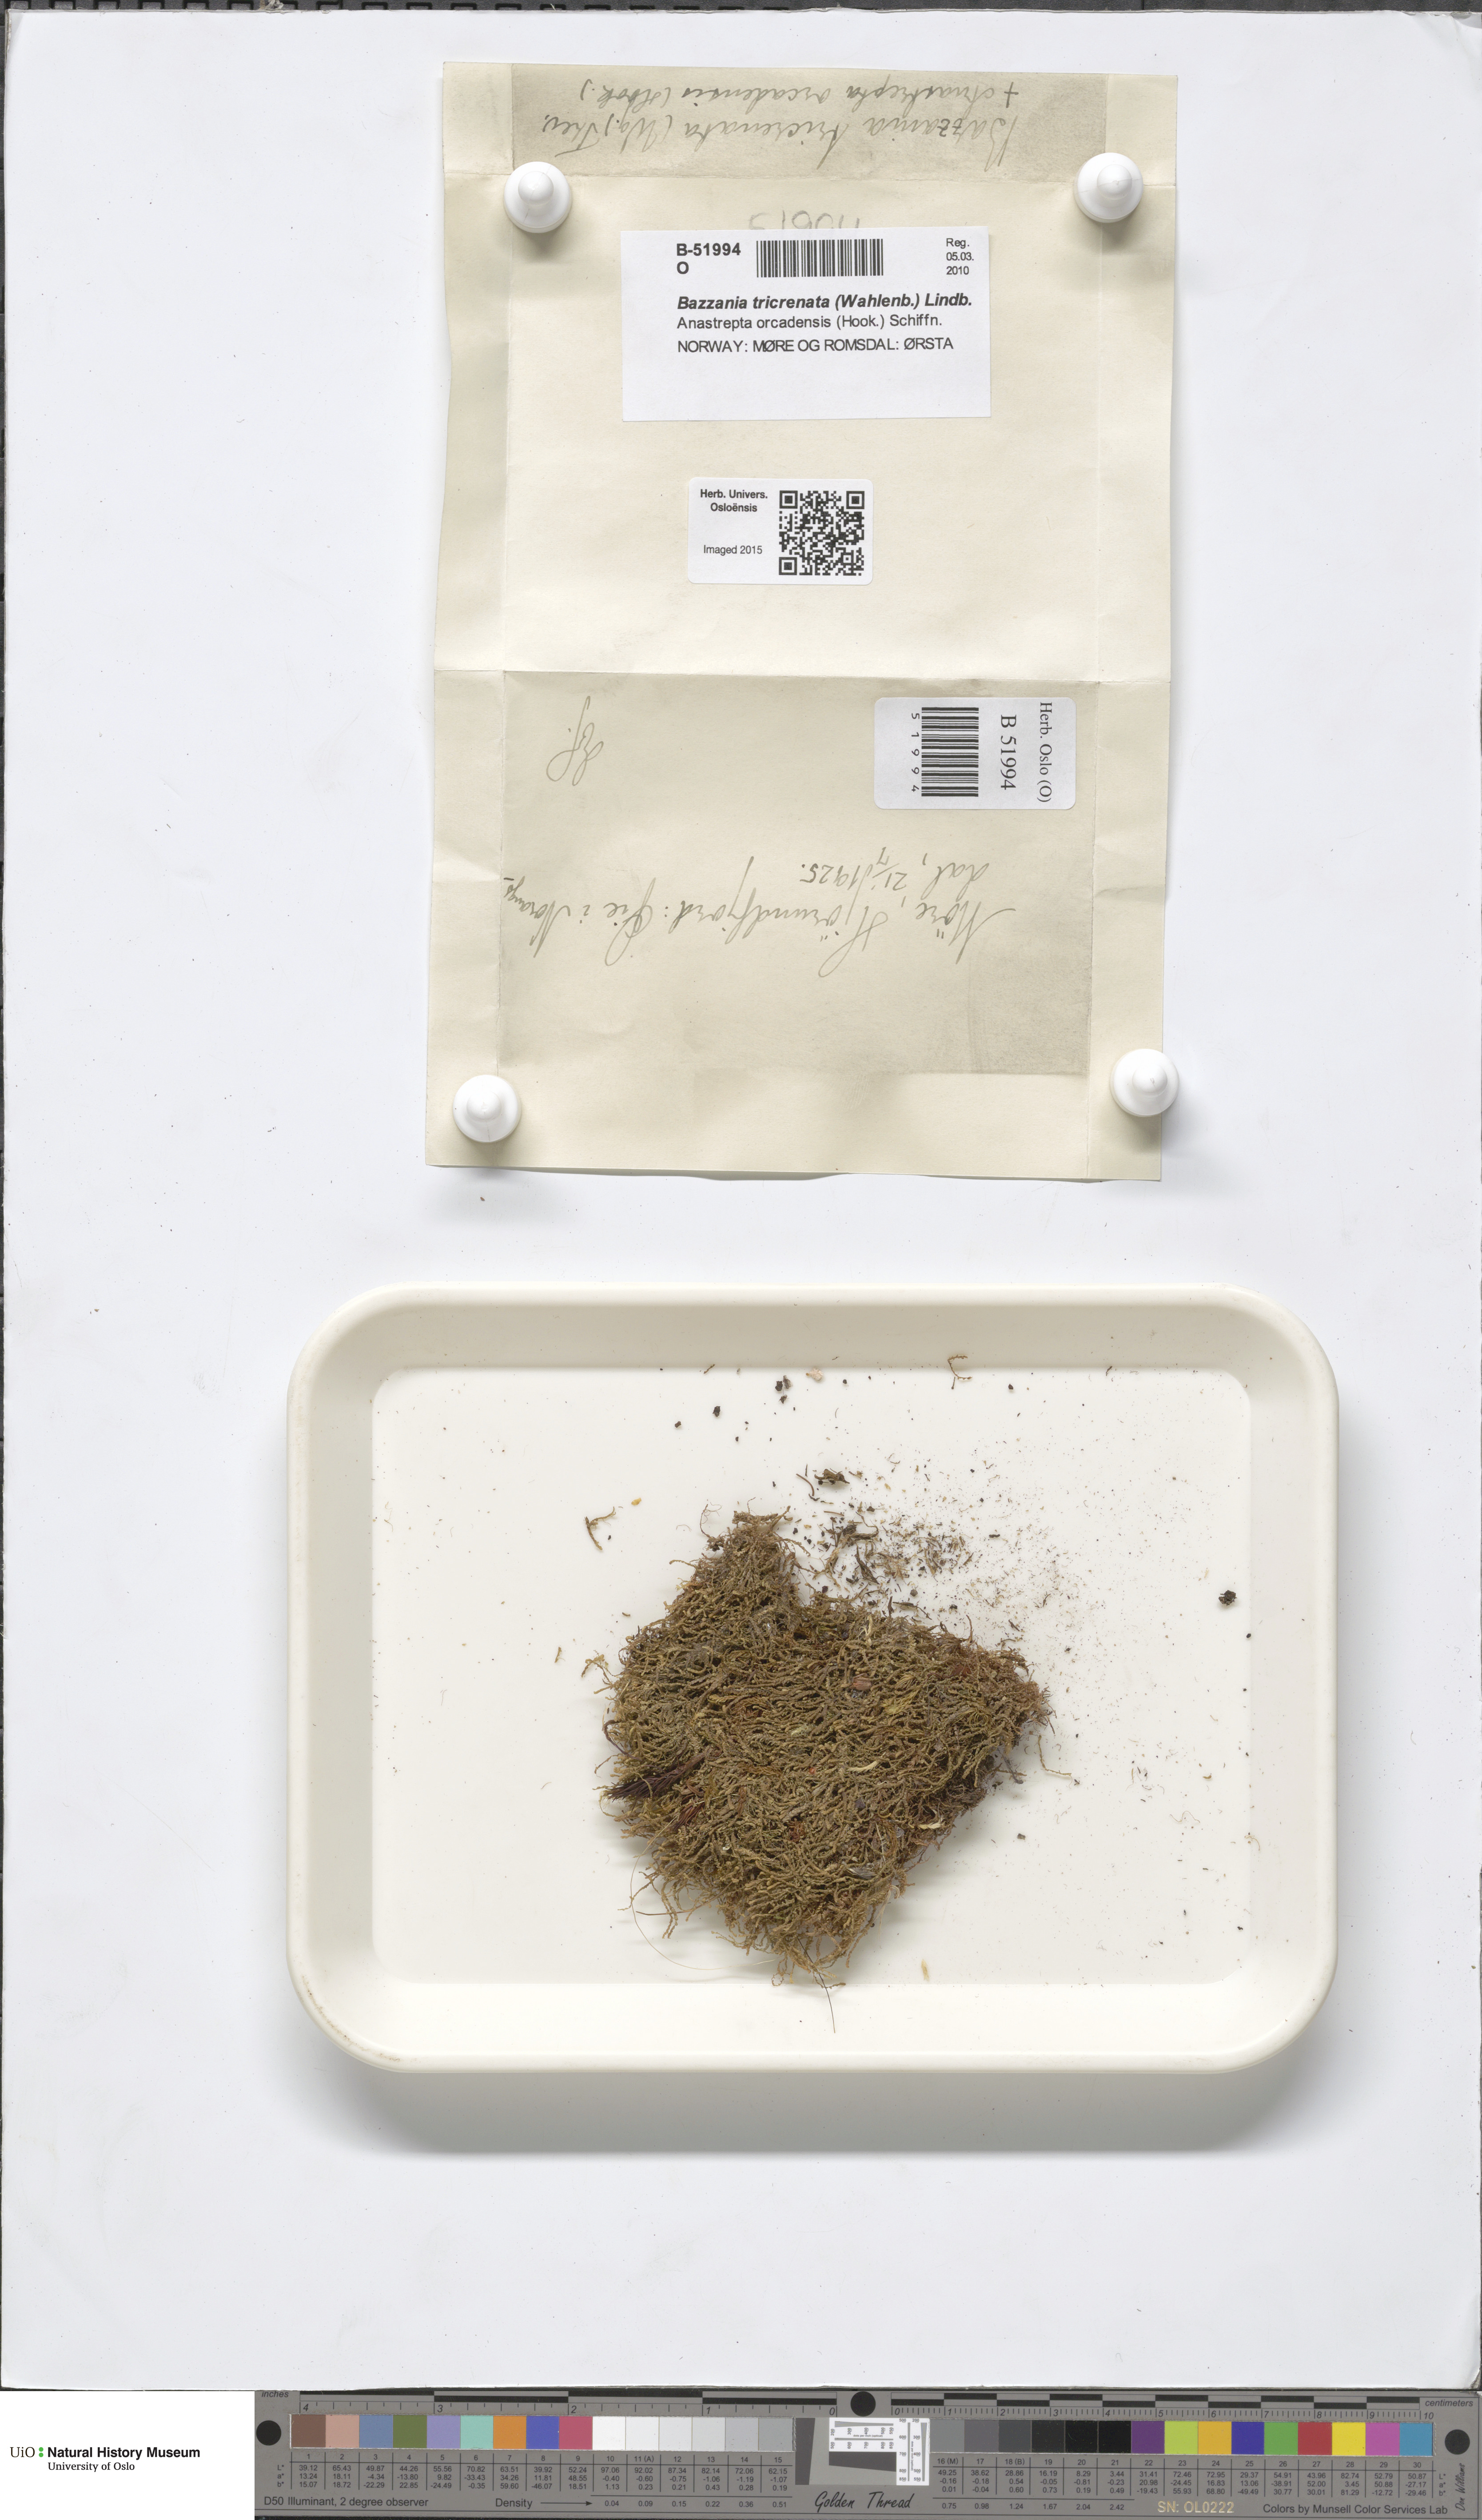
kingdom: Plantae
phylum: Marchantiophyta
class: Jungermanniopsida
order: Jungermanniales
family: Lepidoziaceae
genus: Bazzania
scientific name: Bazzania tricrenata
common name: Lesser whipwort
